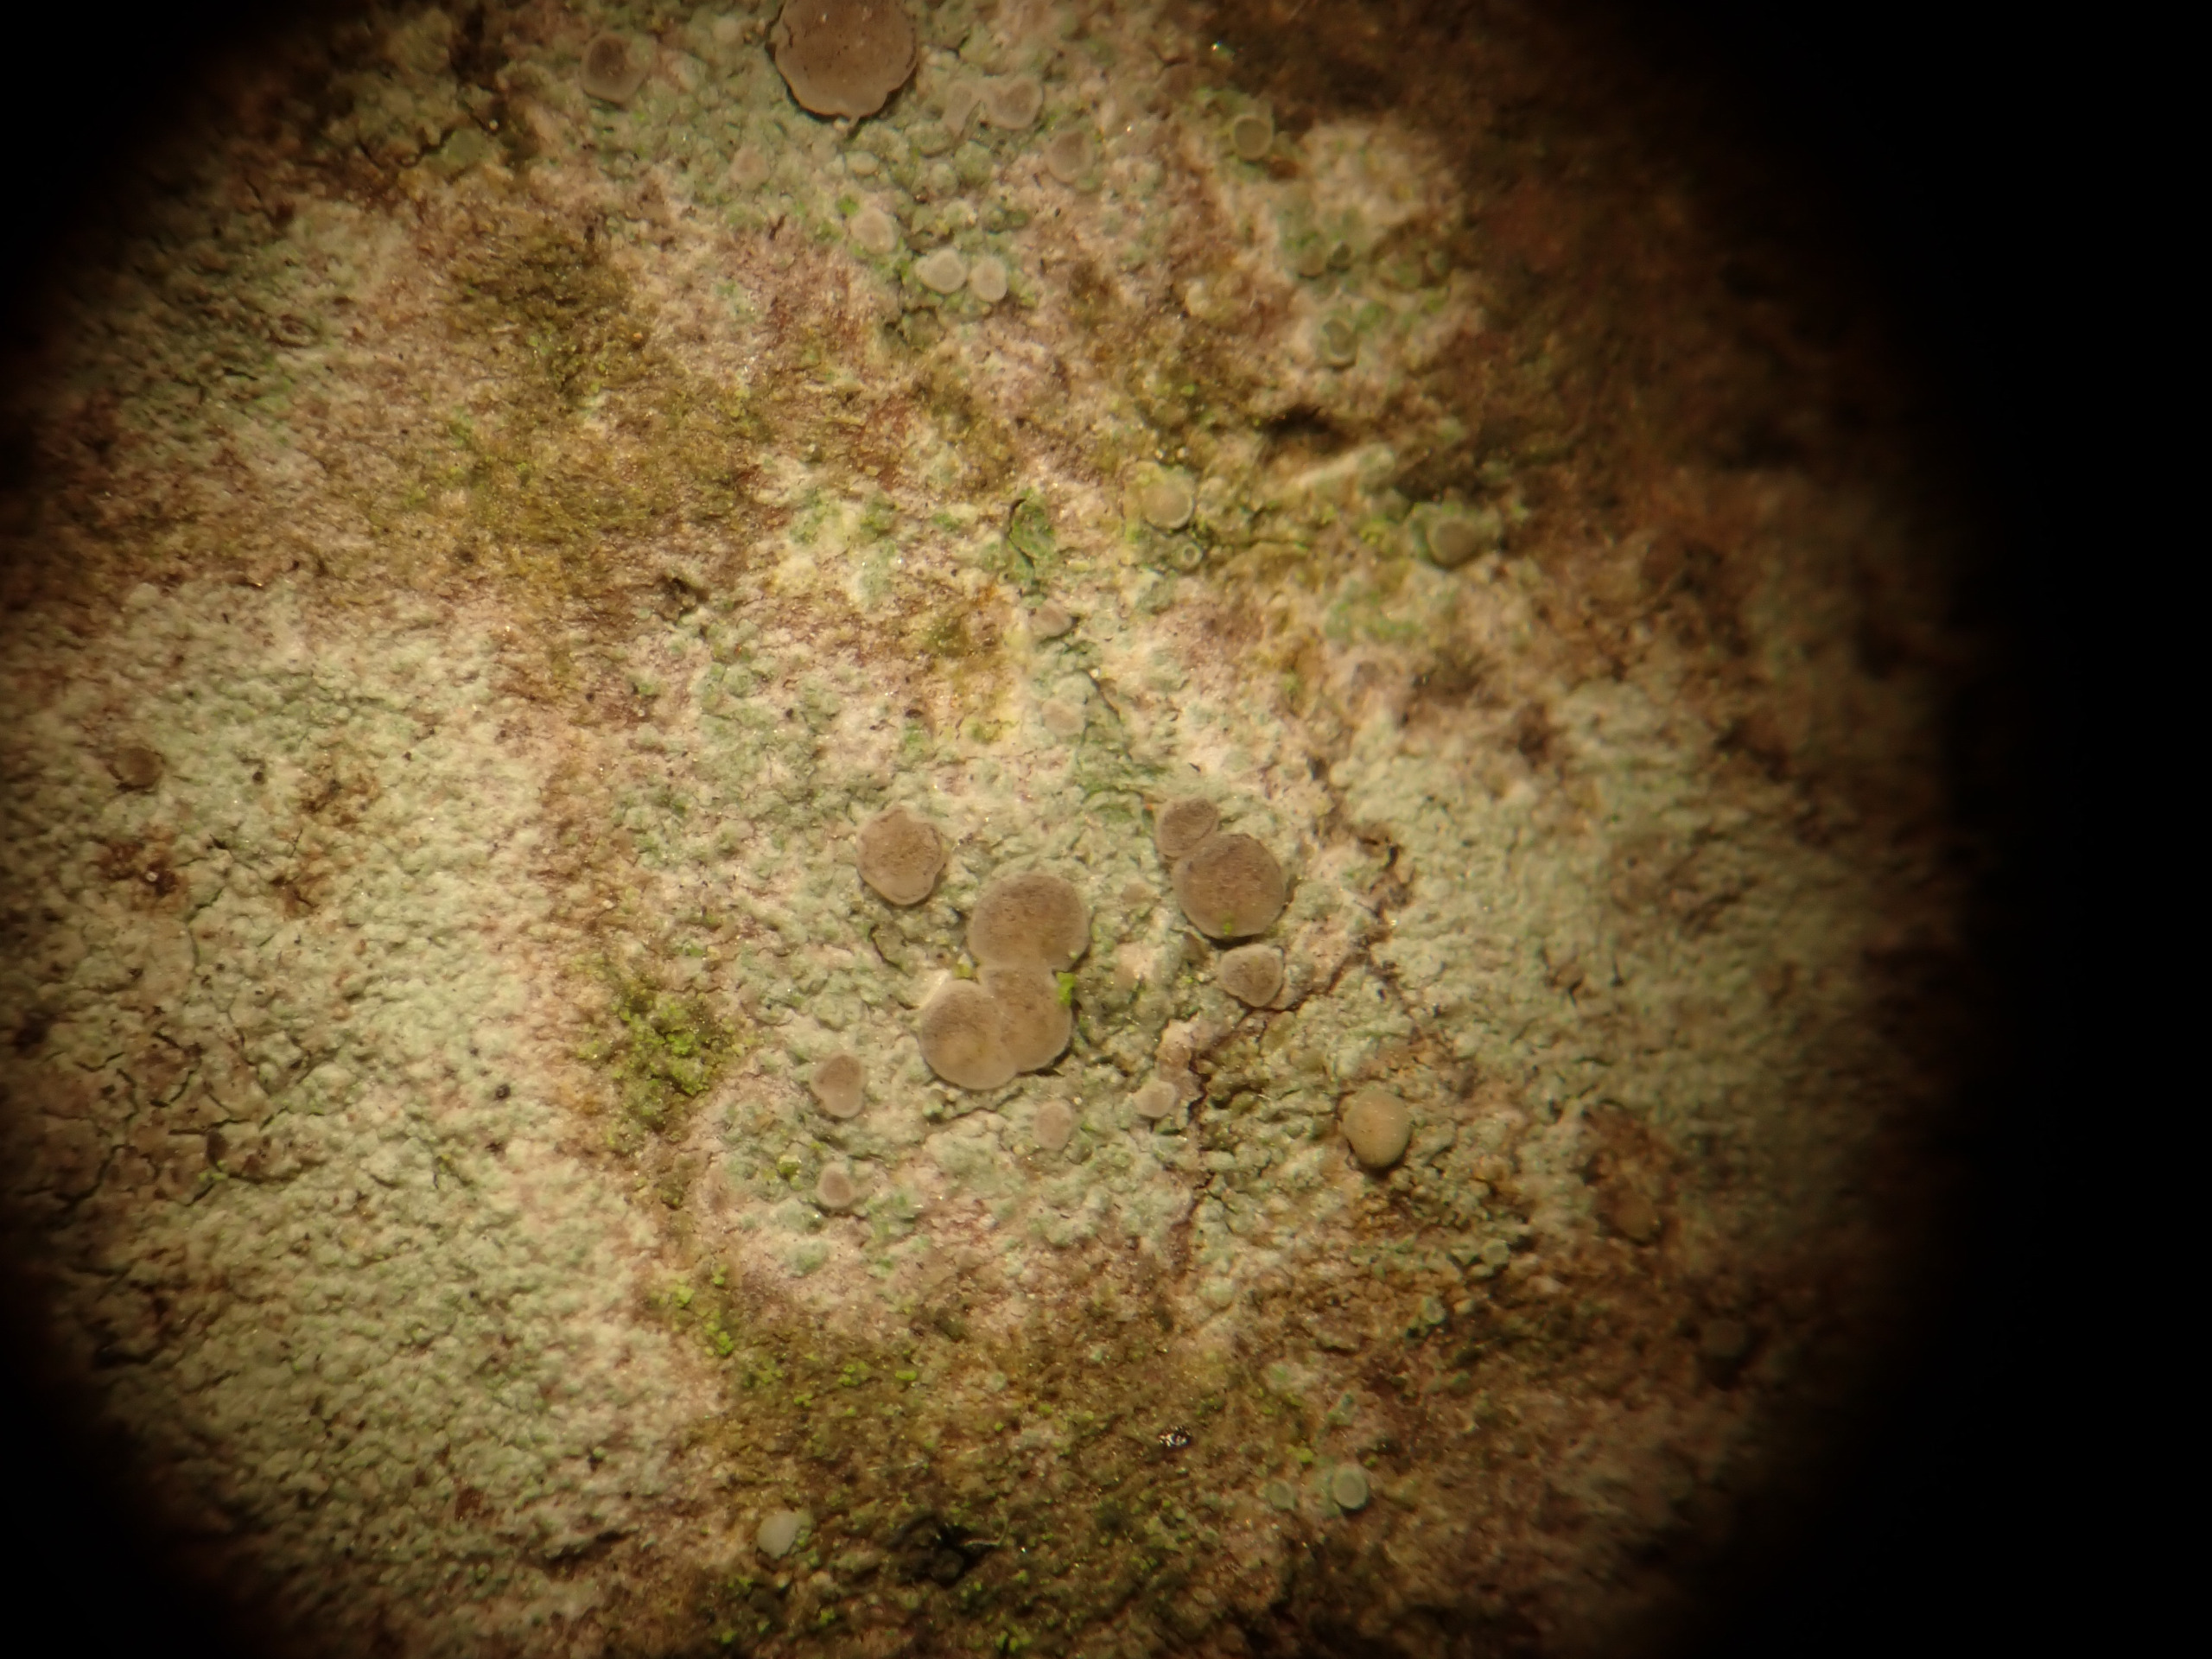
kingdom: Fungi
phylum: Ascomycota
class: Lecanoromycetes
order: Lecanorales
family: Ramalinaceae
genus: Lecania
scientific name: Lecania naegelii
